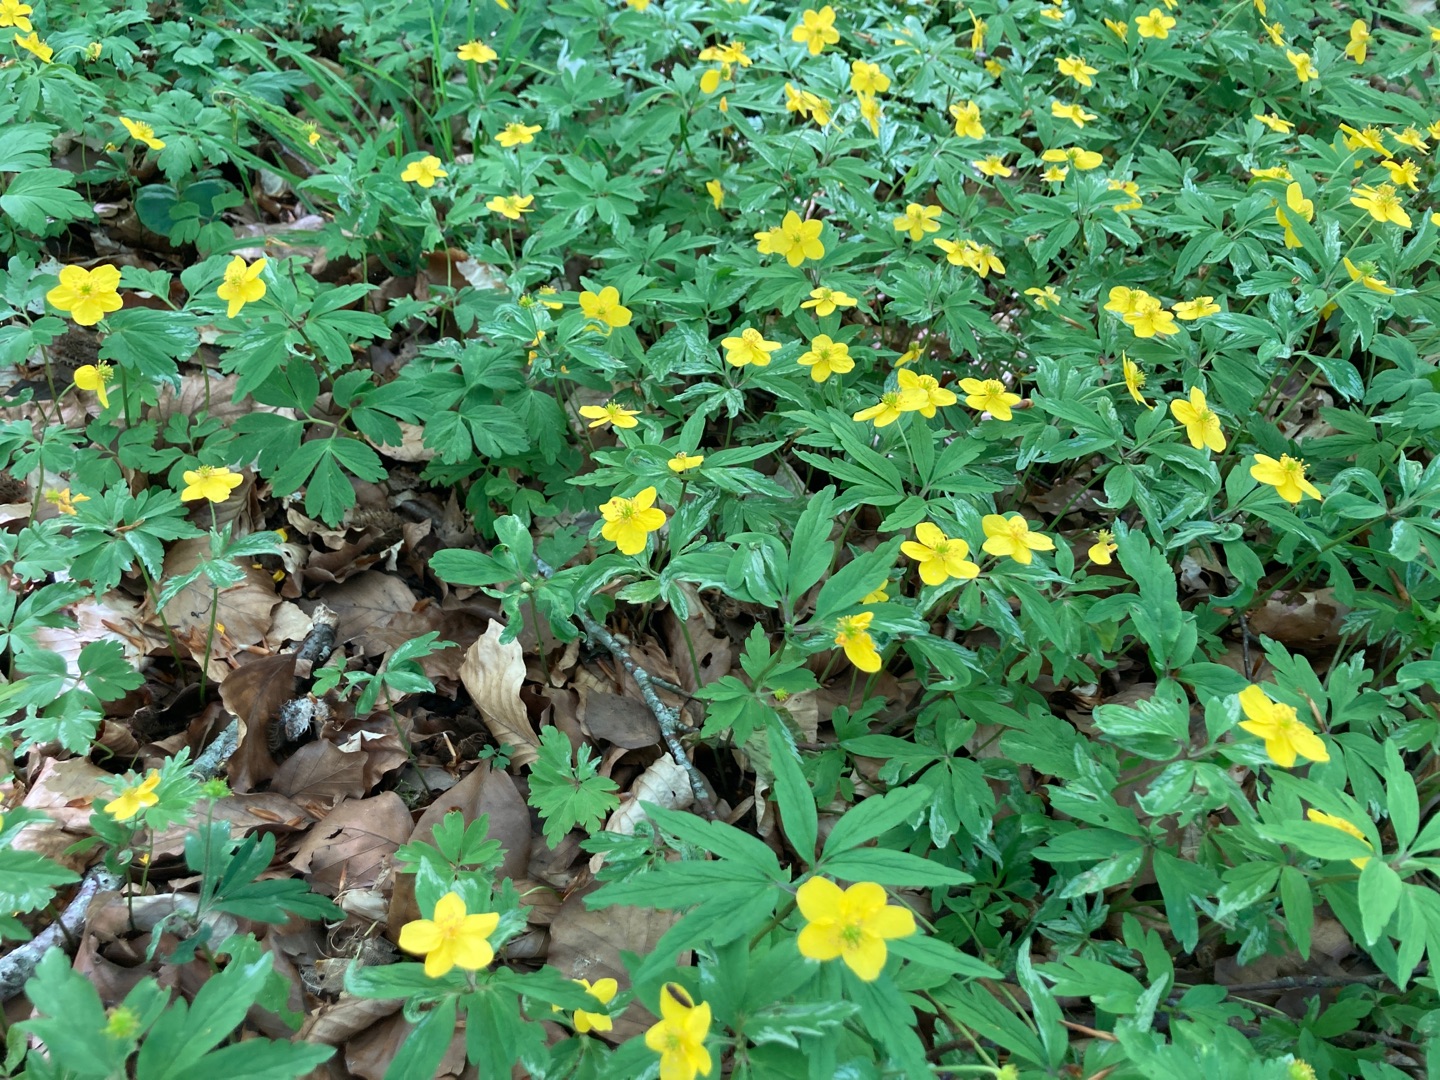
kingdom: Plantae
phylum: Tracheophyta
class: Magnoliopsida
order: Ranunculales
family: Ranunculaceae
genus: Anemone
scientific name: Anemone ranunculoides
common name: Gul anemone
